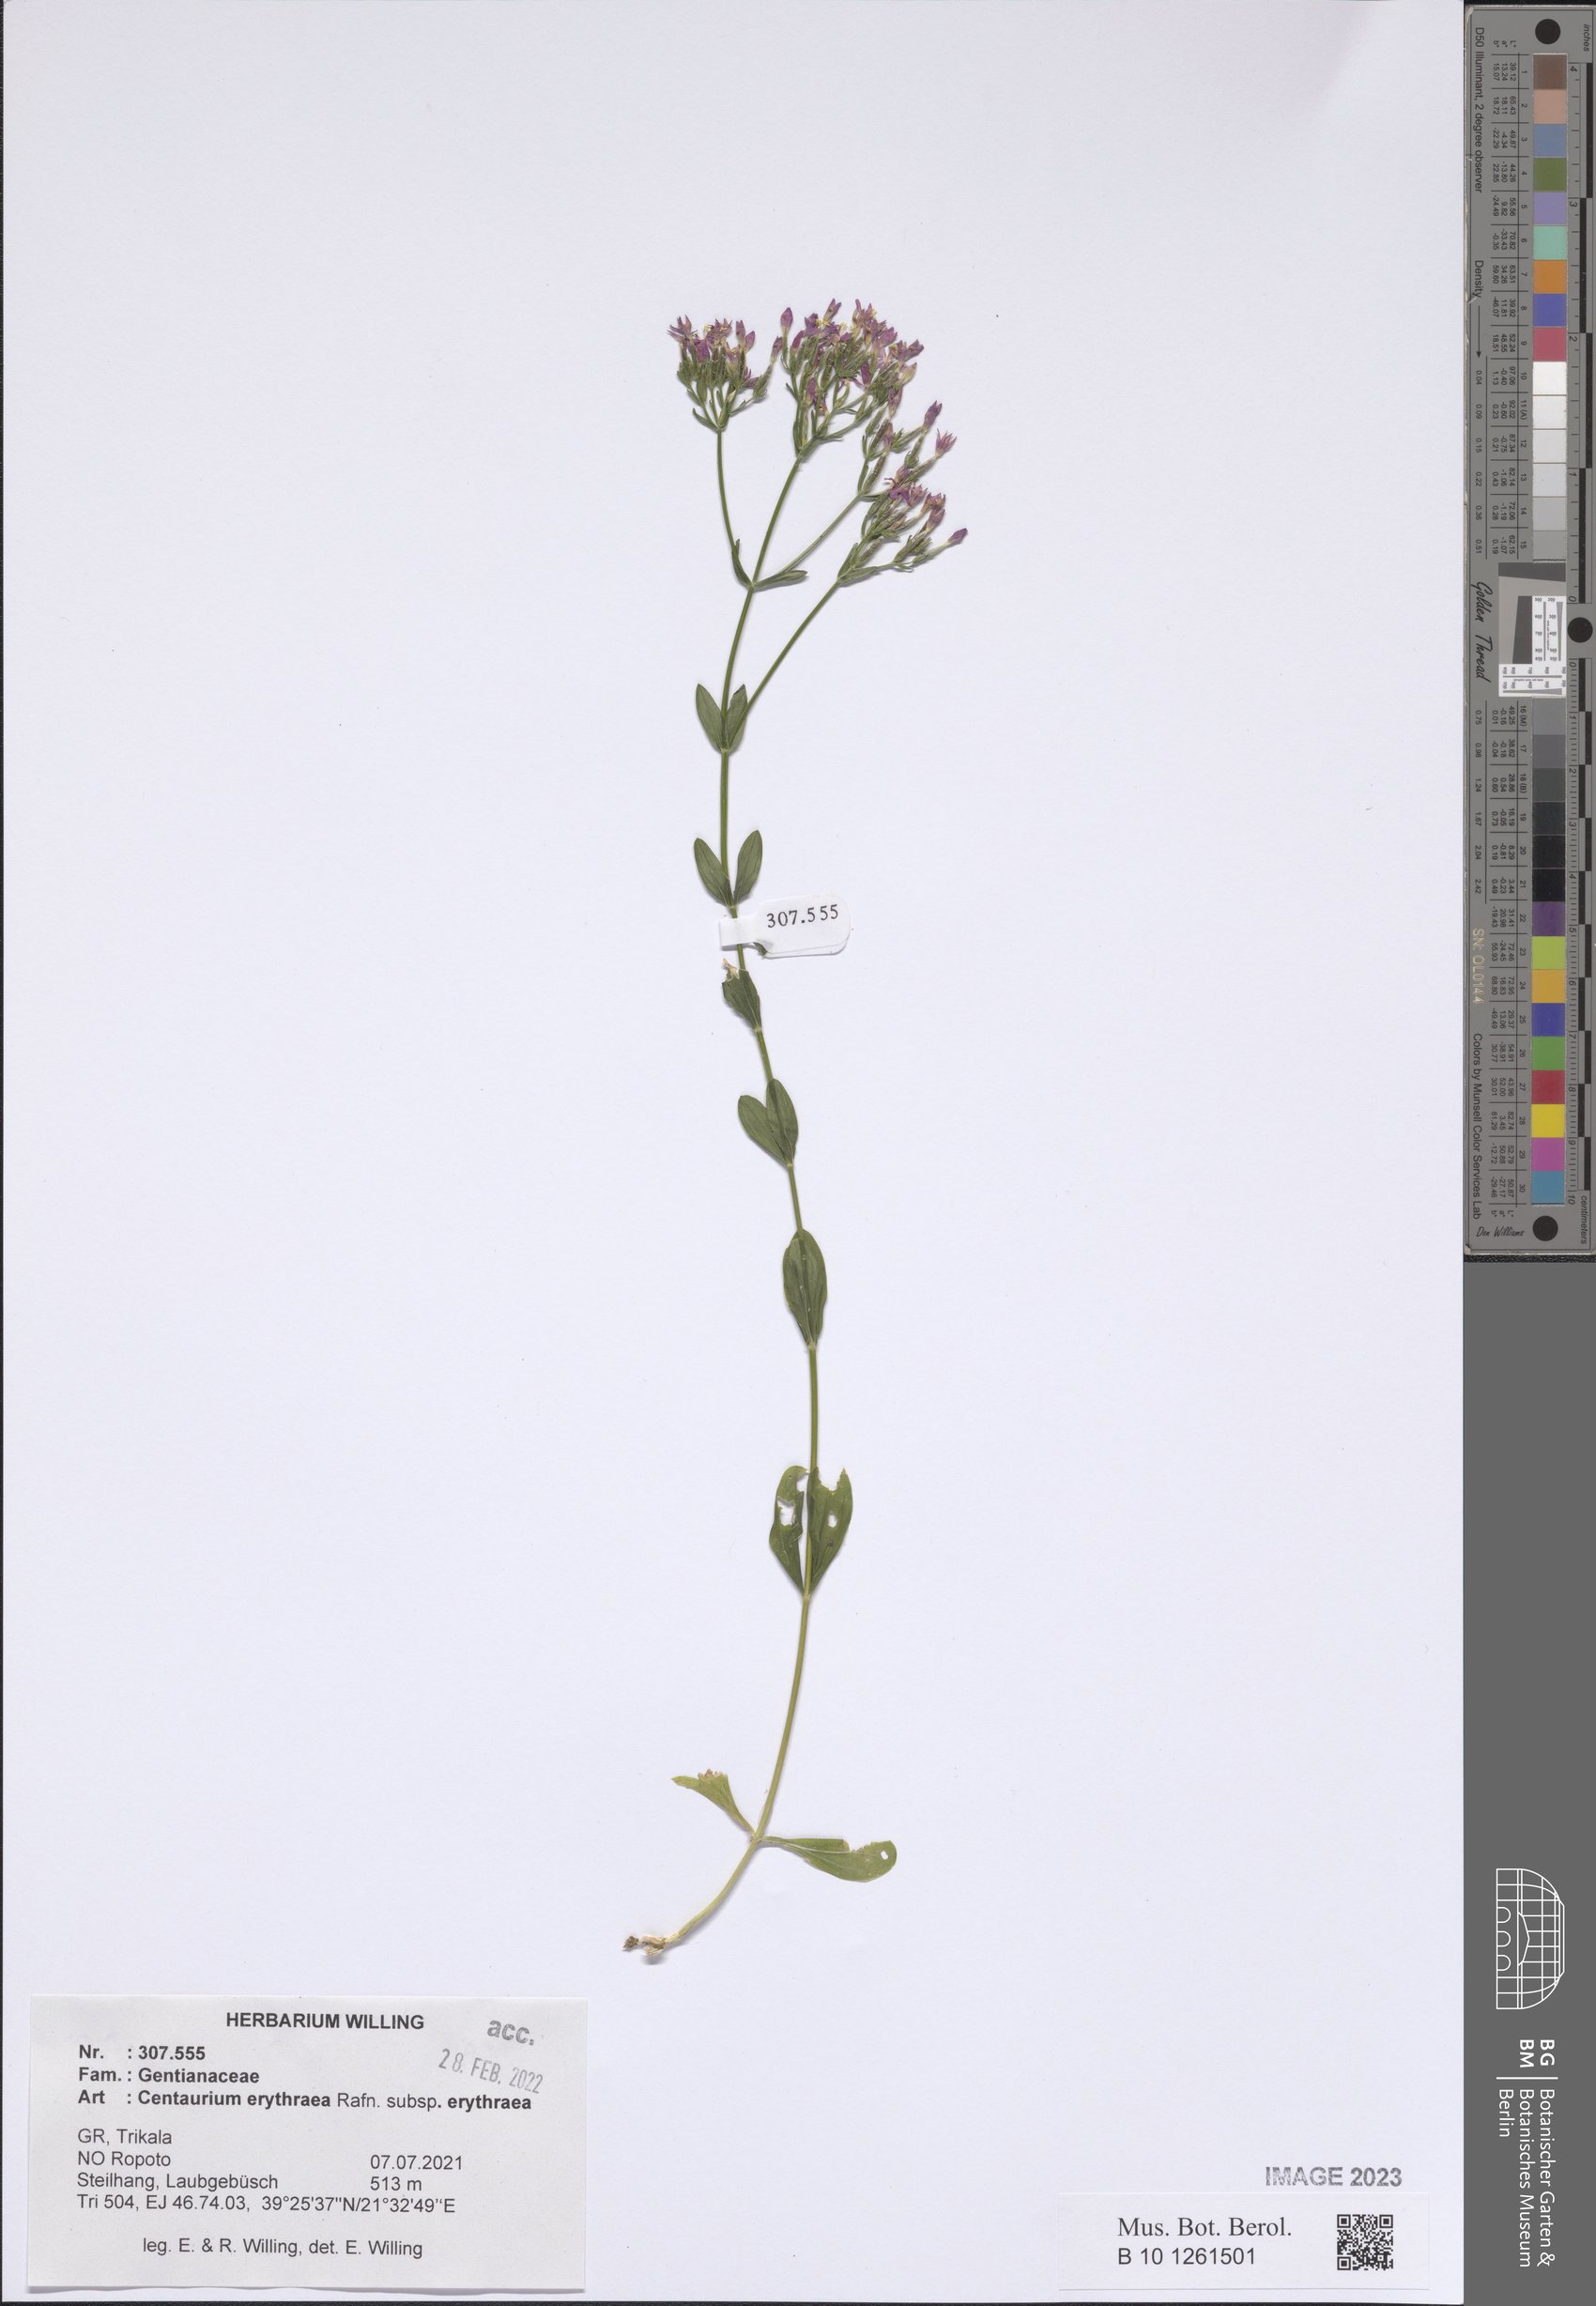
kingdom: Plantae
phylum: Tracheophyta
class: Magnoliopsida
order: Gentianales
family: Gentianaceae
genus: Centaurium
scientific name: Centaurium erythraea
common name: Common centaury
